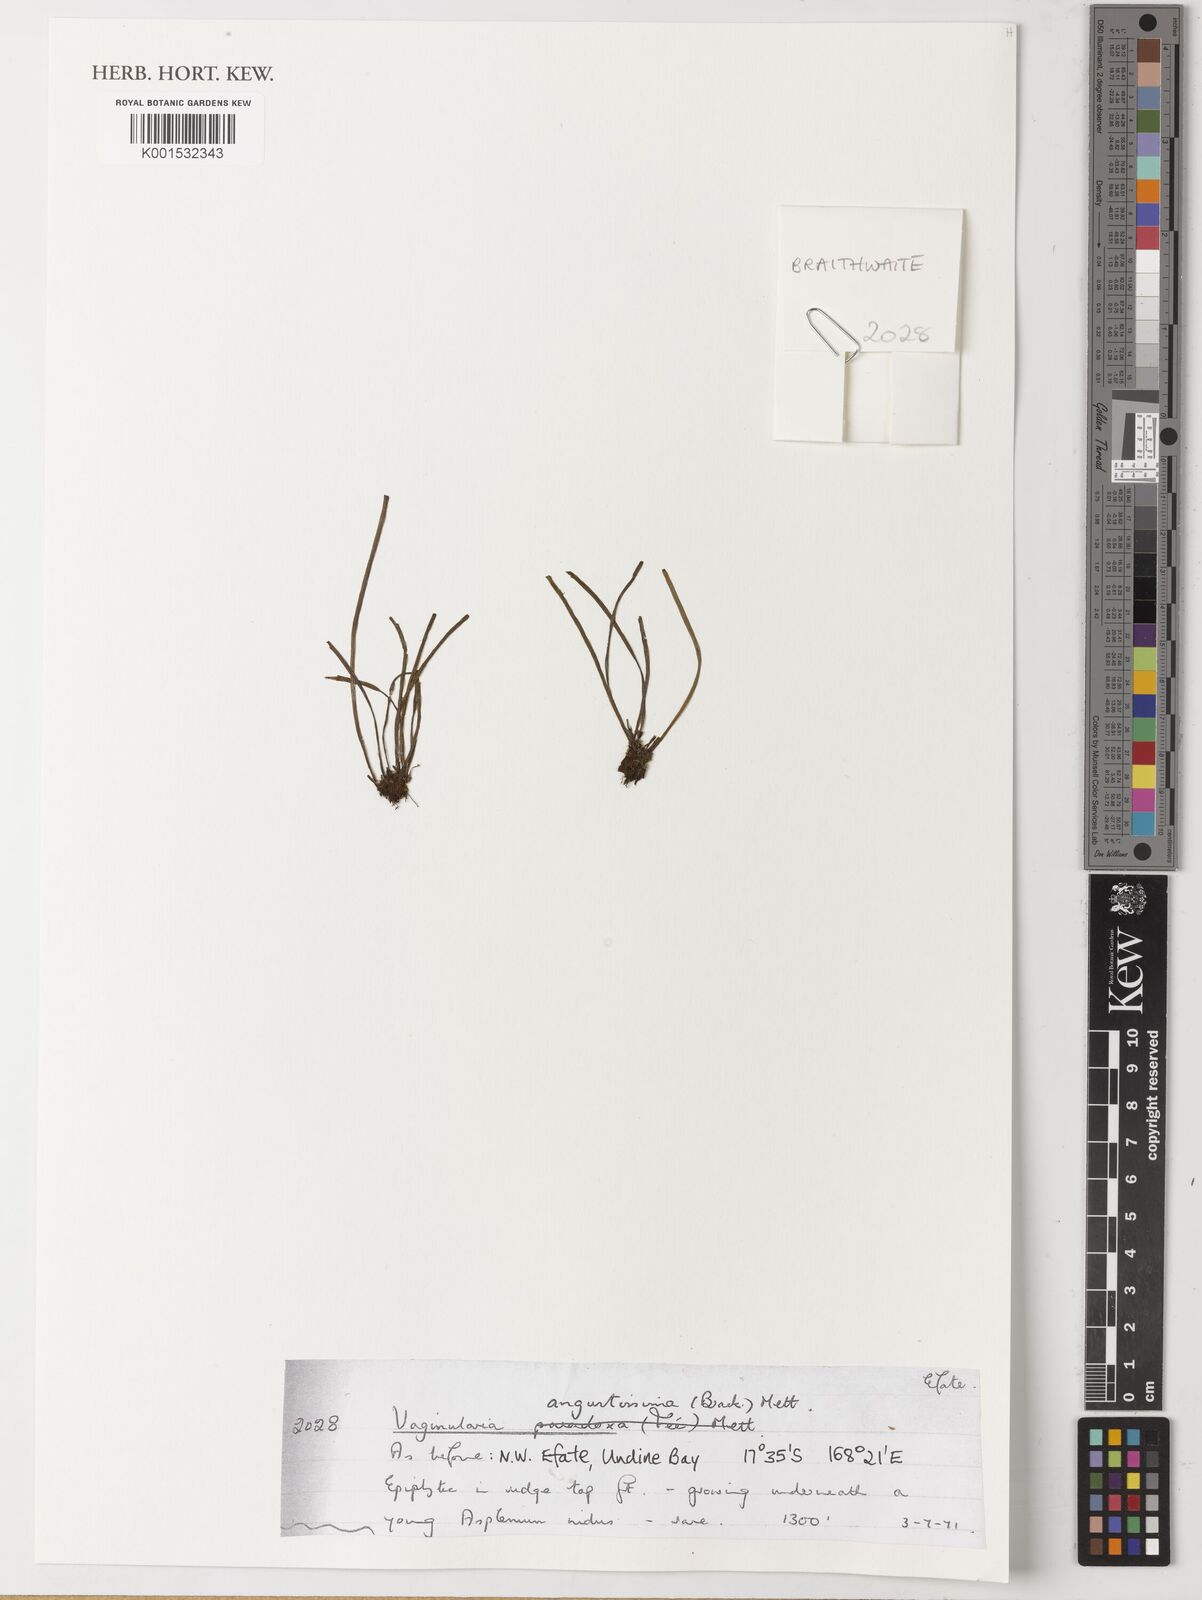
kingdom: Plantae
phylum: Tracheophyta
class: Polypodiopsida
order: Polypodiales
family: Pteridaceae
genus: Vaginularia
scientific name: Vaginularia junghuhnii
